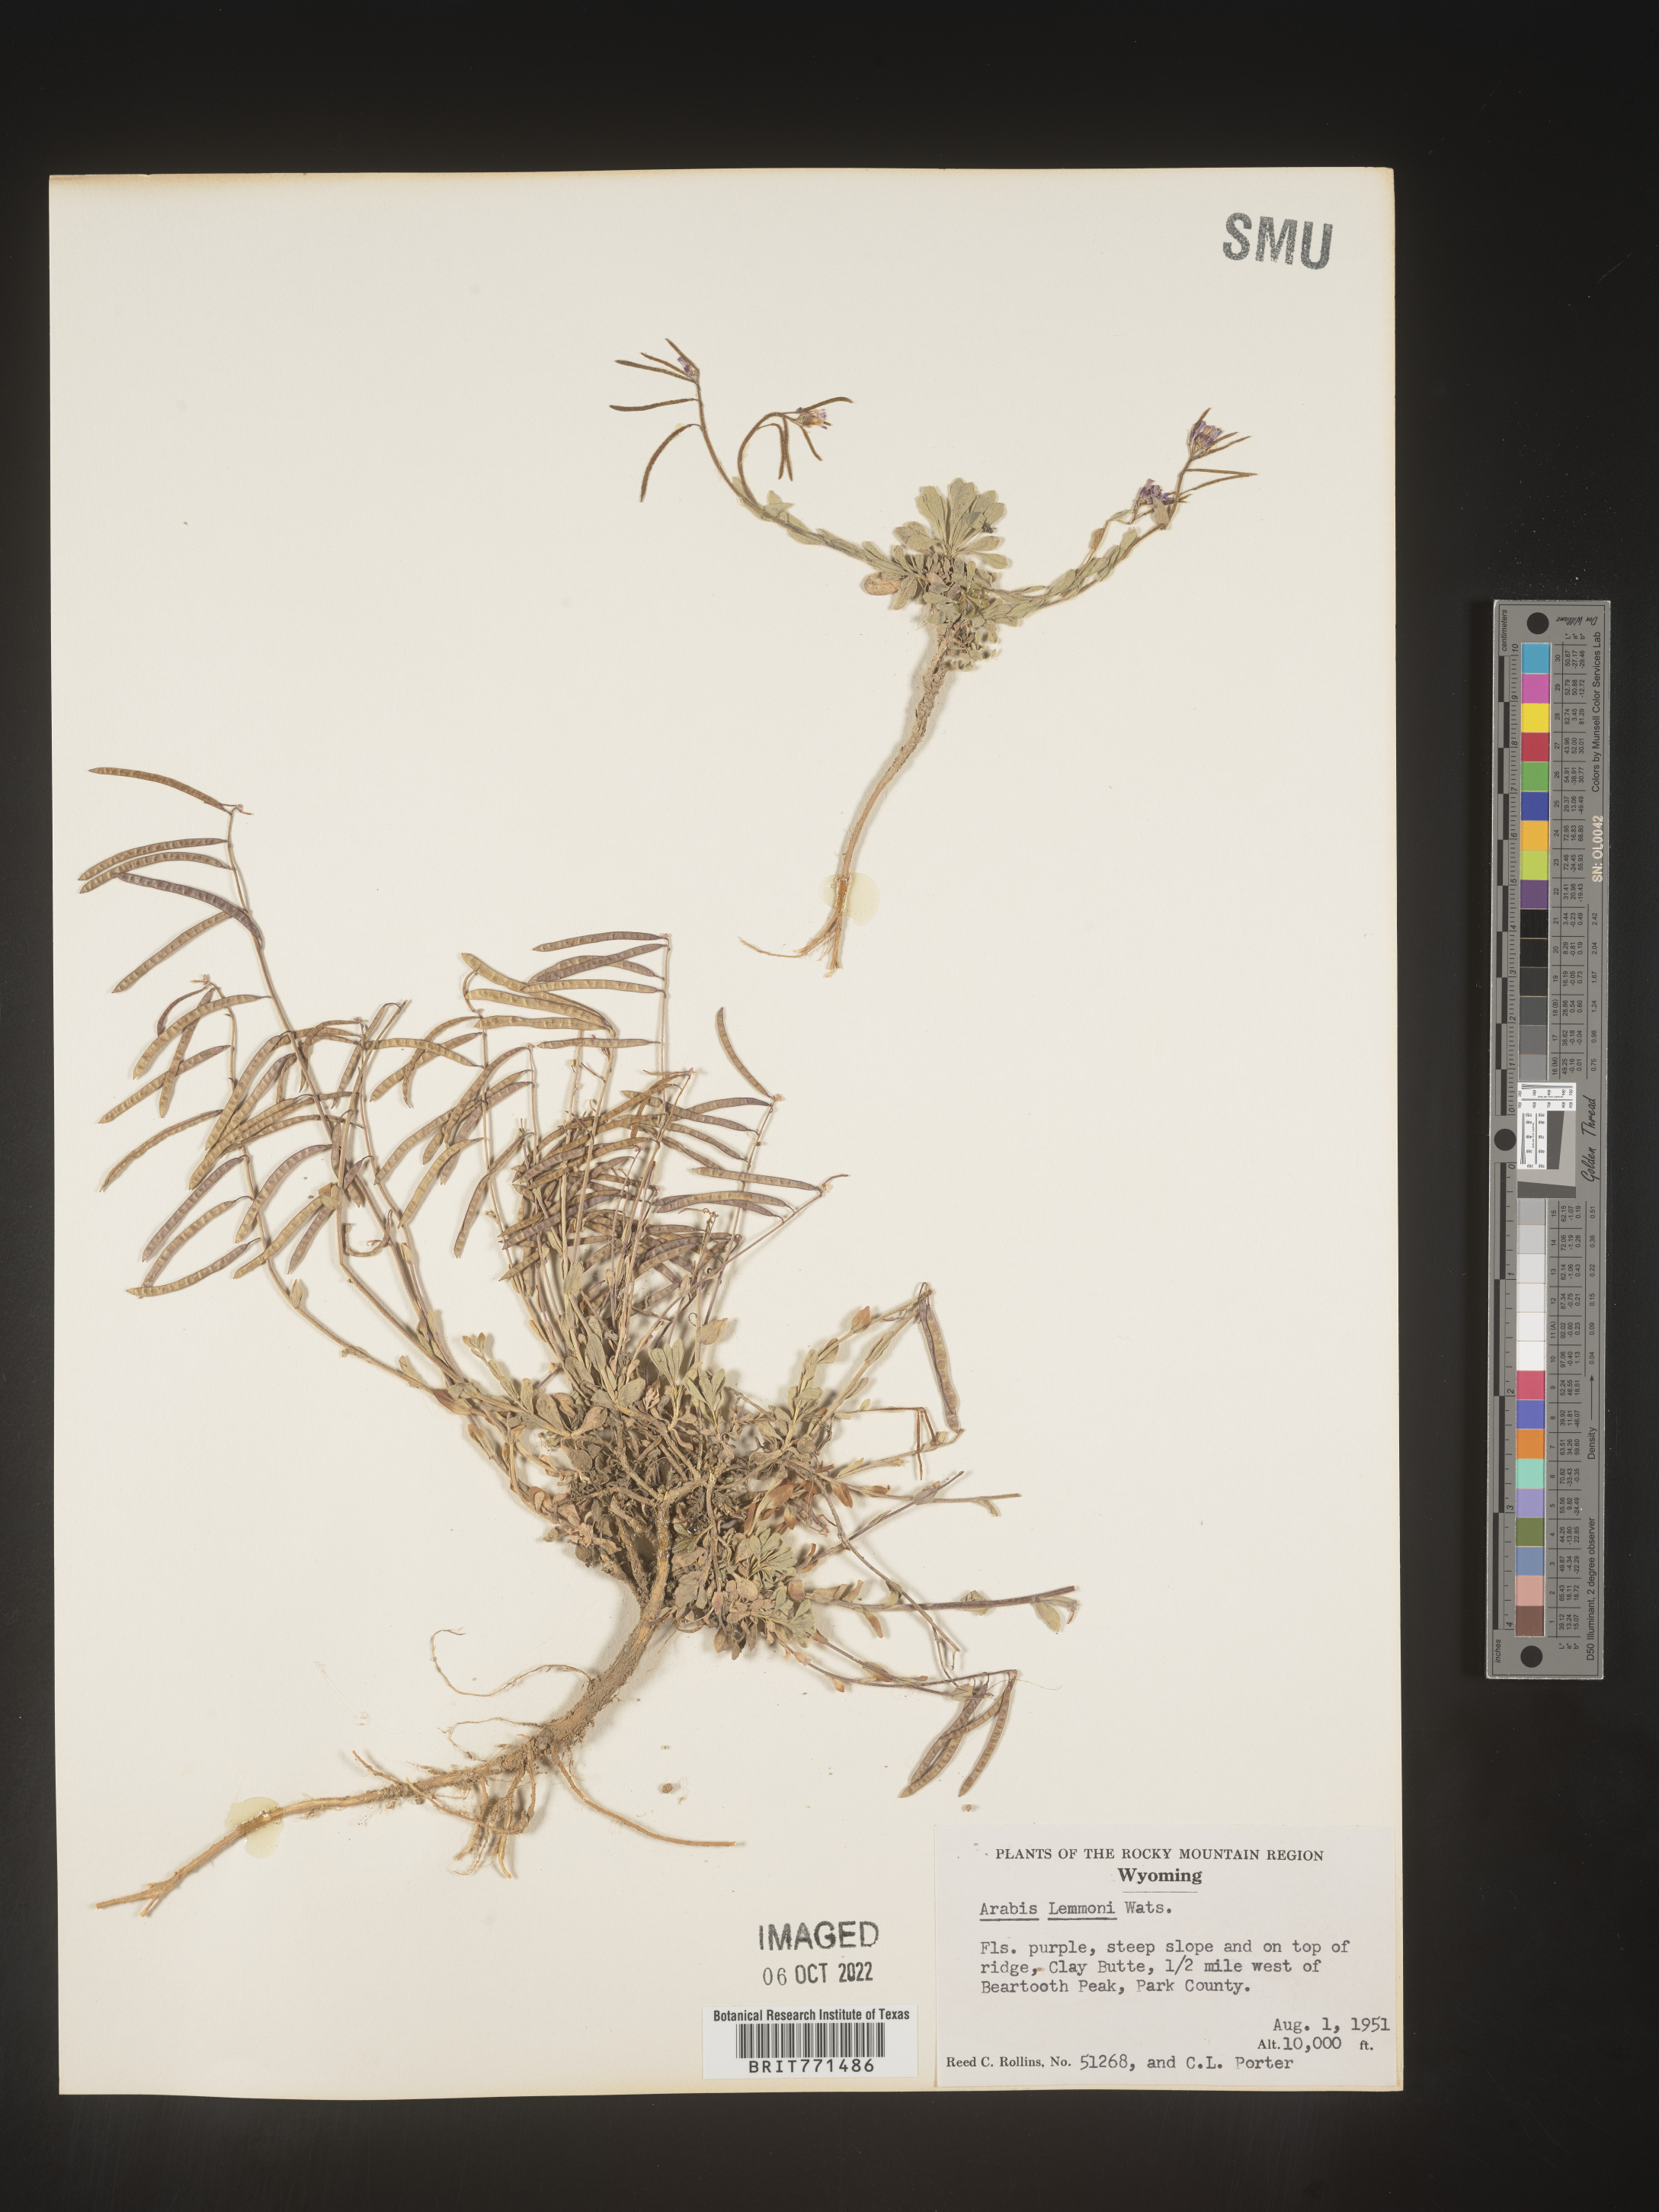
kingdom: Plantae
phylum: Tracheophyta
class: Magnoliopsida
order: Brassicales
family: Brassicaceae
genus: Arabis
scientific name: Arabis
